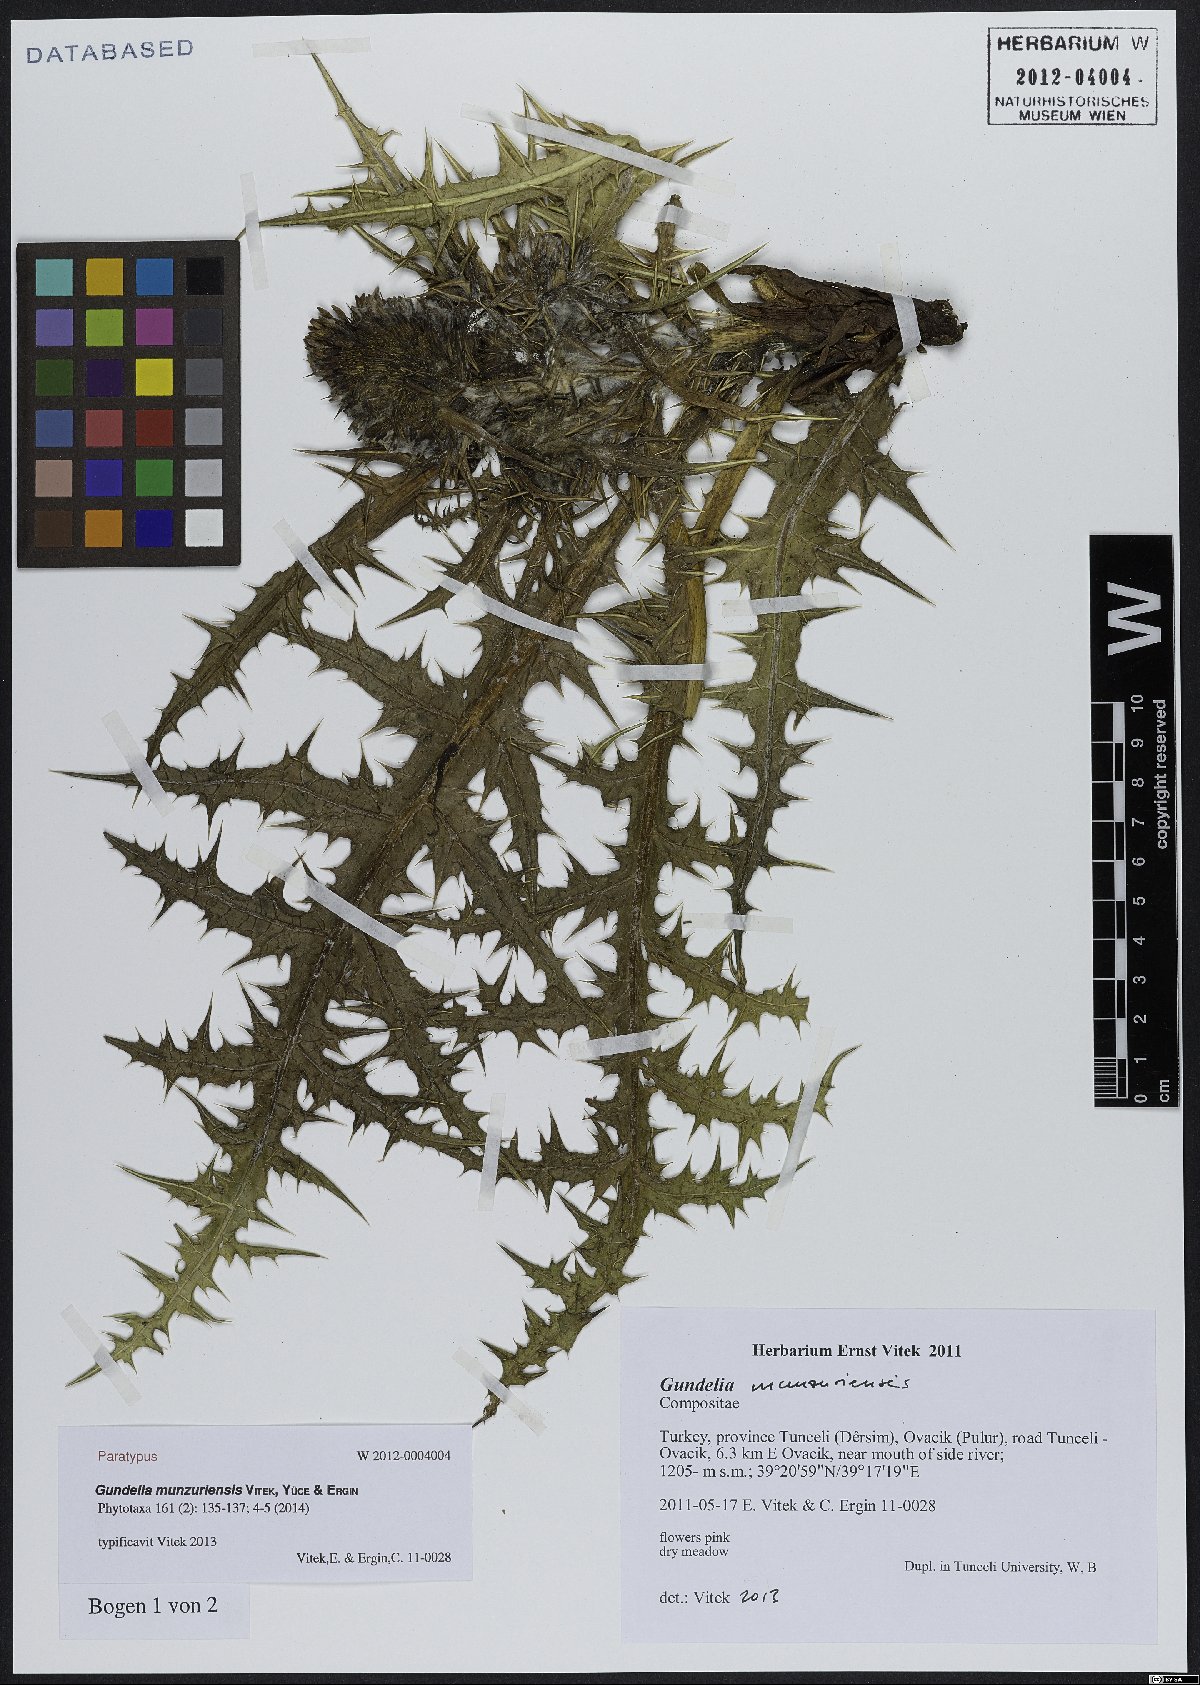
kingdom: Plantae
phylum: Tracheophyta
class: Magnoliopsida
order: Asterales
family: Asteraceae
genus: Gundelia
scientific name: Gundelia munzuriensis
